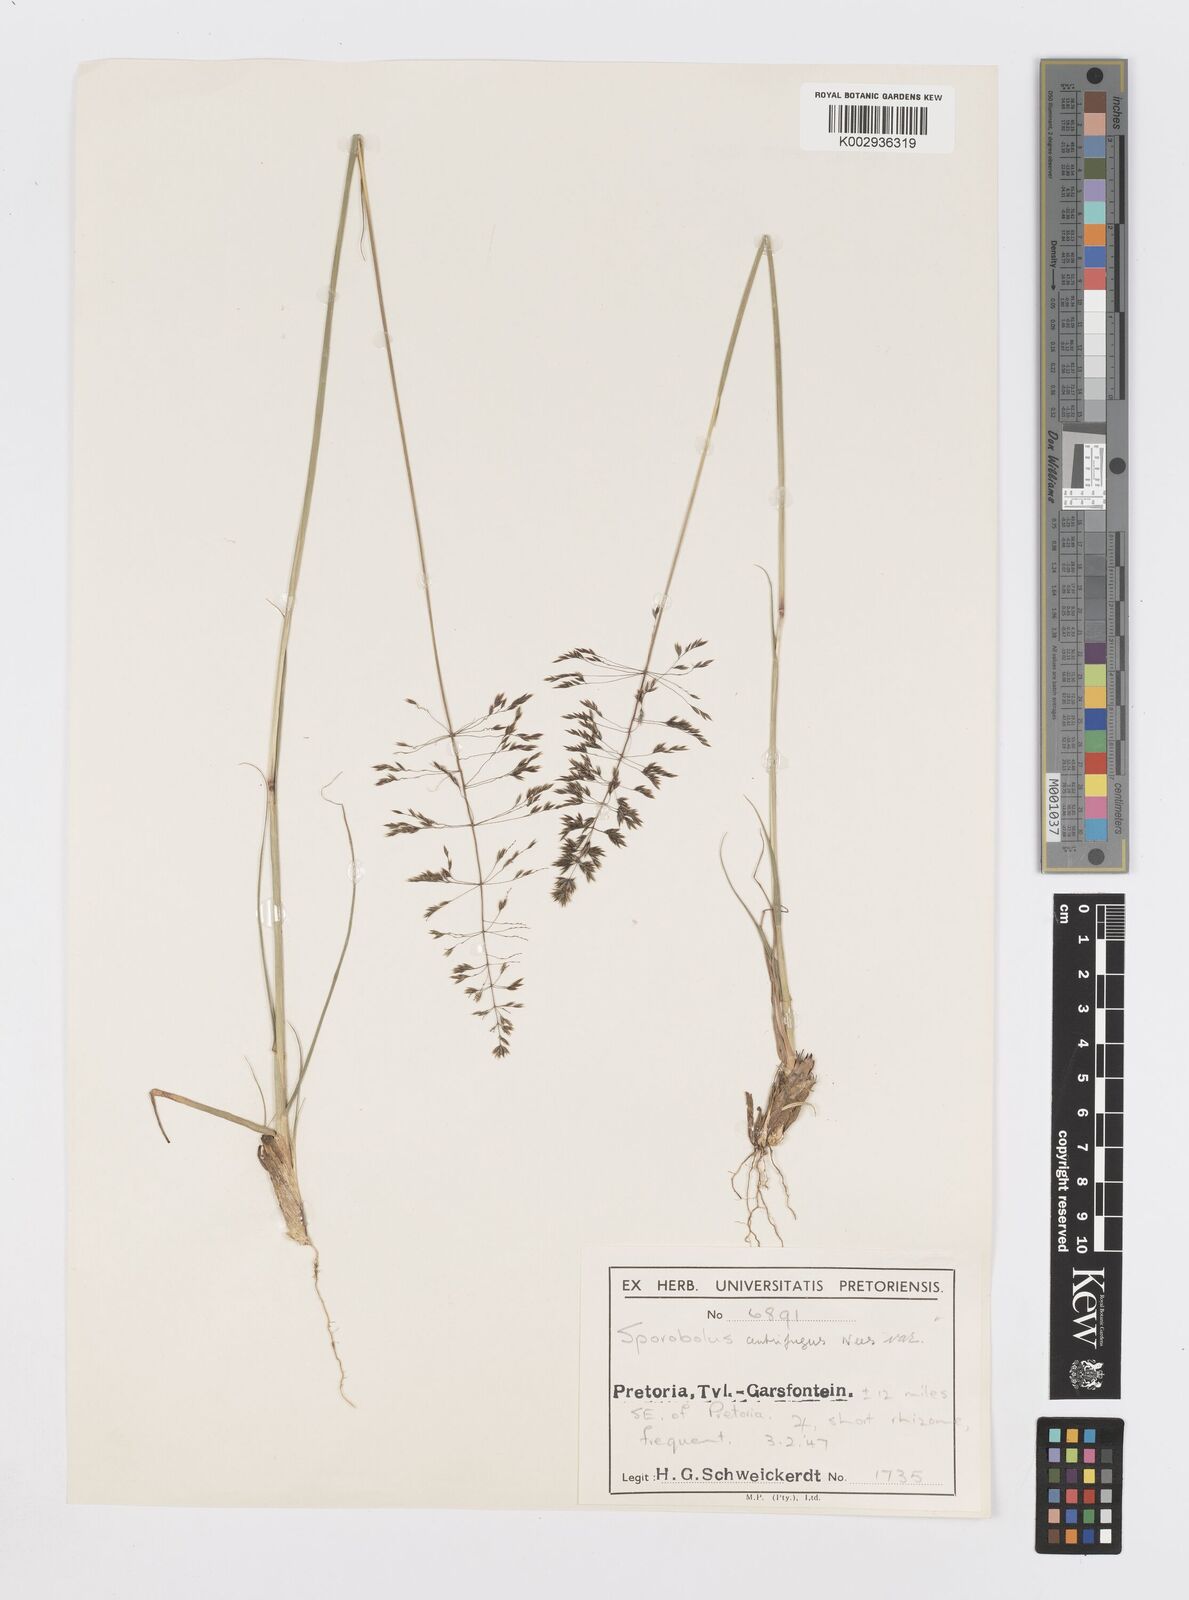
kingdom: Plantae
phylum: Tracheophyta
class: Liliopsida
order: Poales
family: Poaceae
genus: Sporobolus
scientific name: Sporobolus centrifugus
